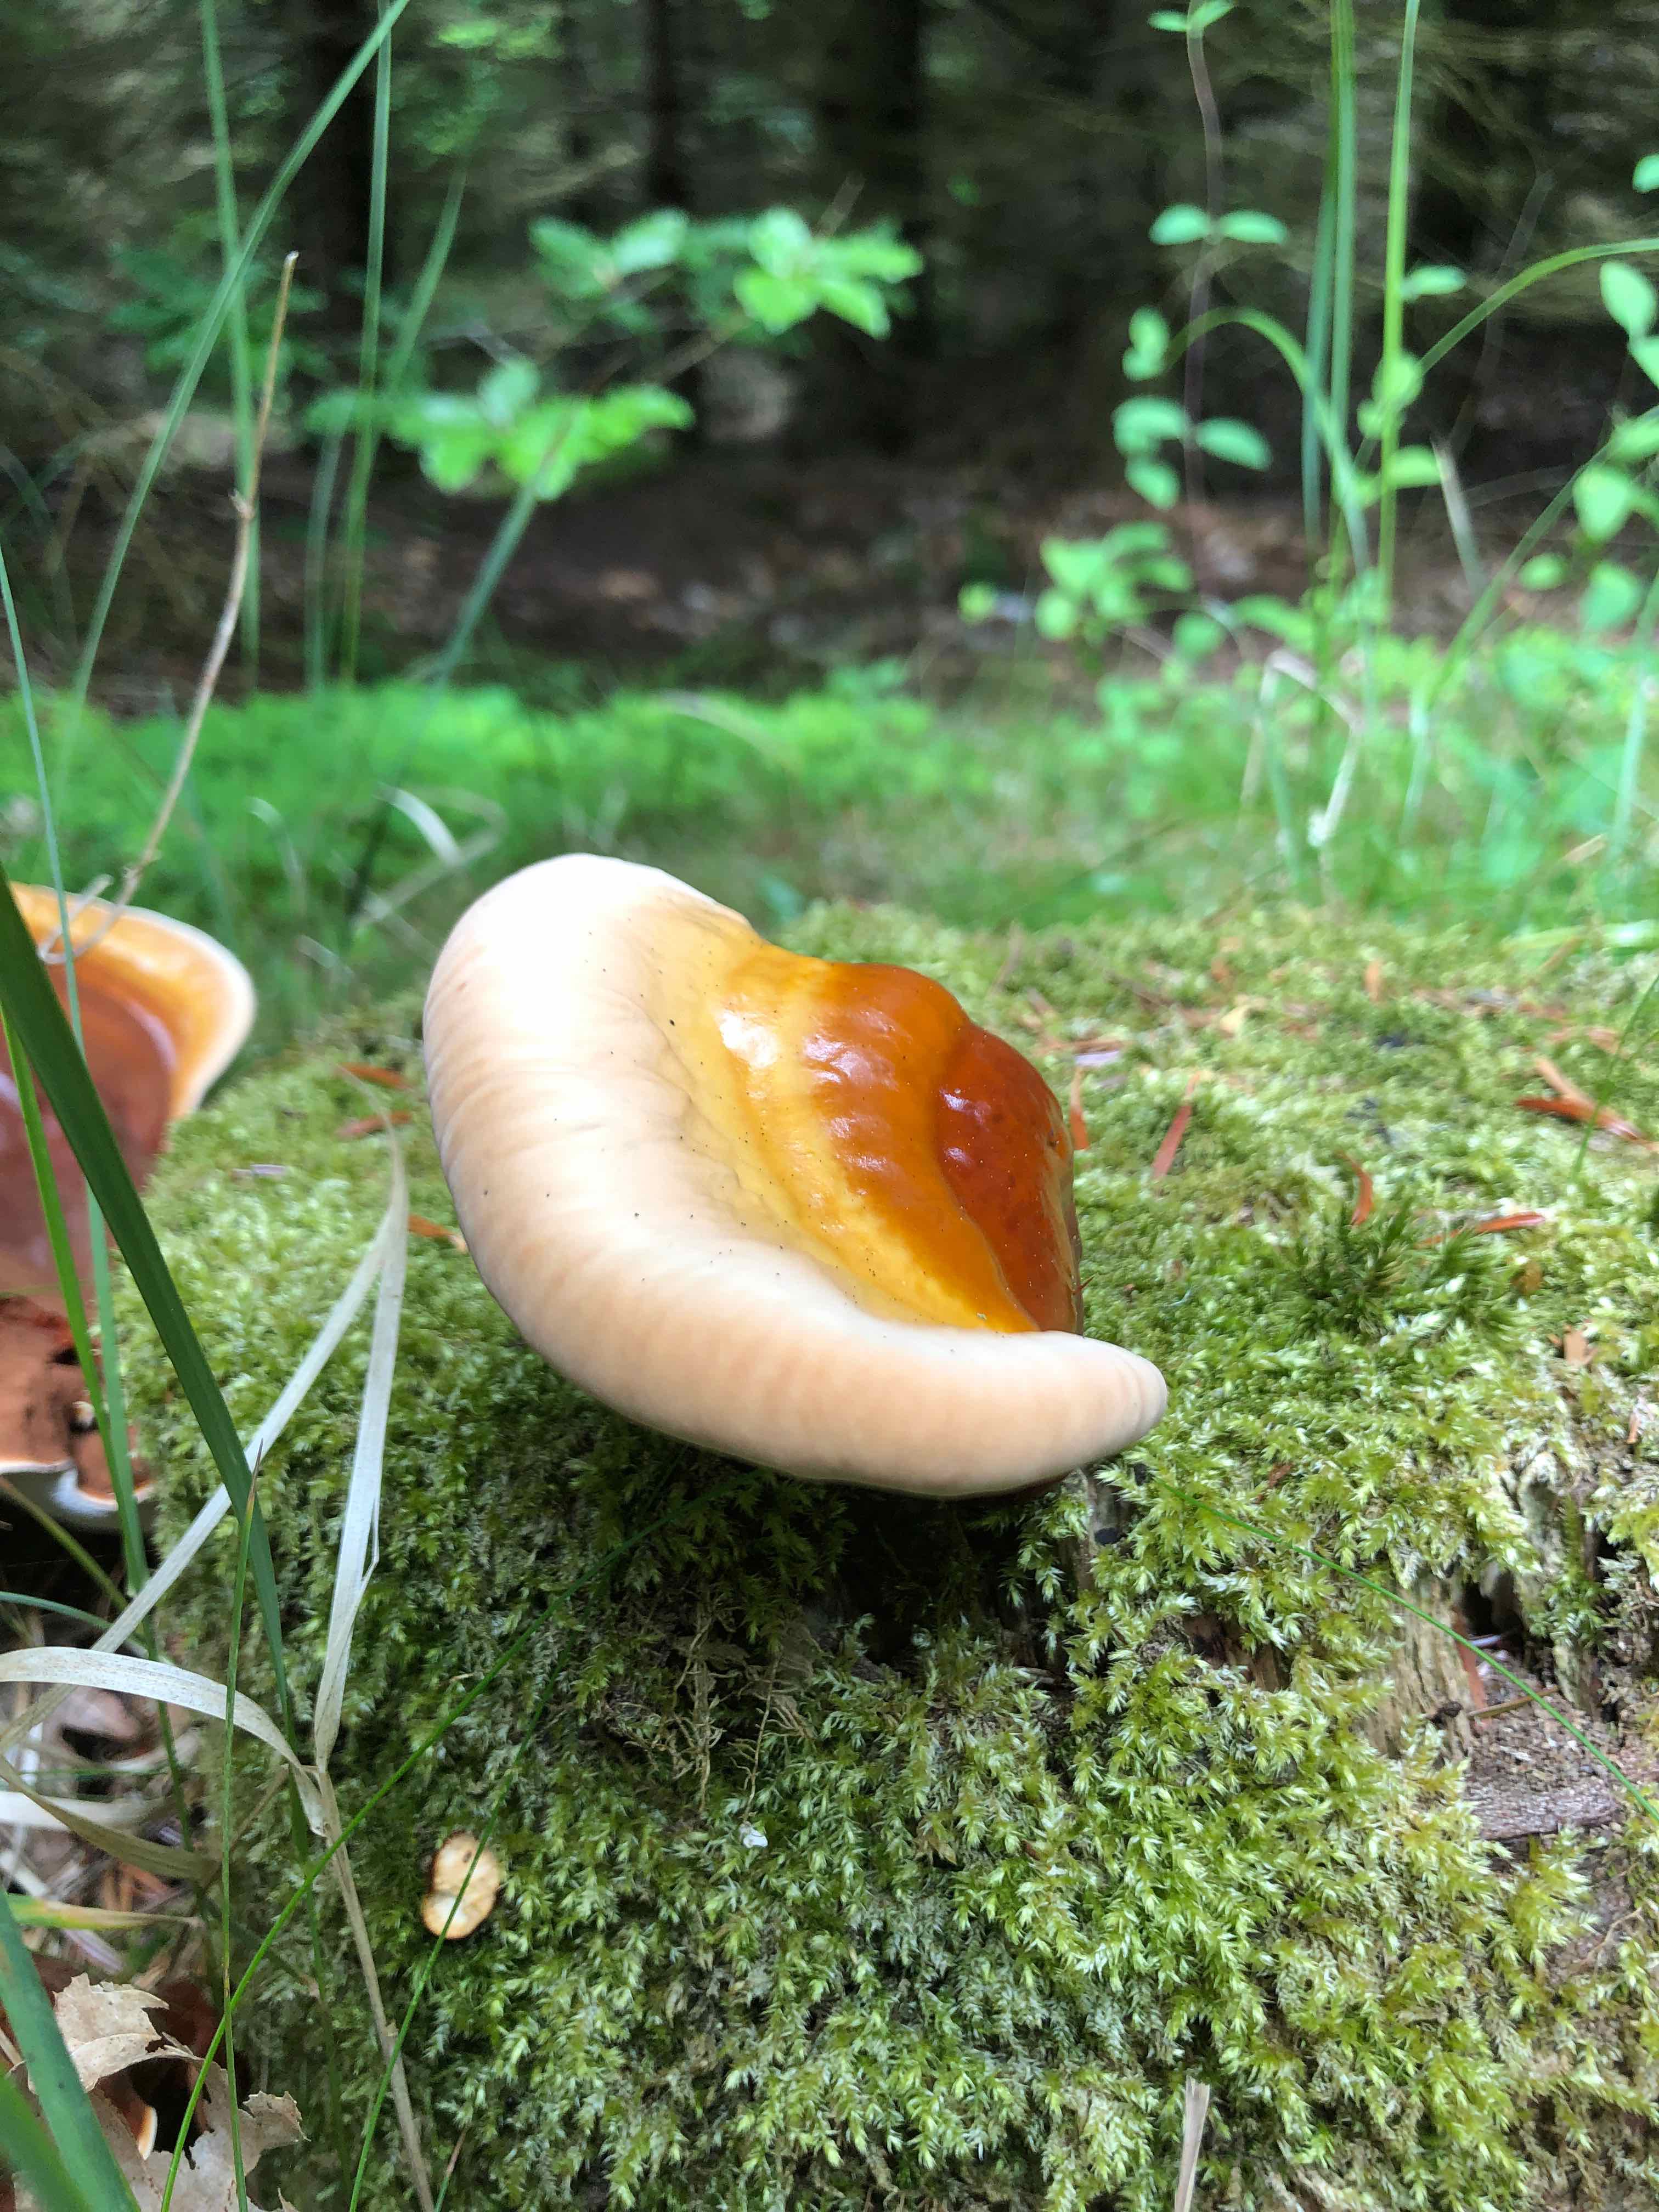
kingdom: Fungi
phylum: Basidiomycota
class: Agaricomycetes
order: Polyporales
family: Polyporaceae
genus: Ganoderma
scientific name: Ganoderma lucidum
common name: skinnende lakporesvamp
